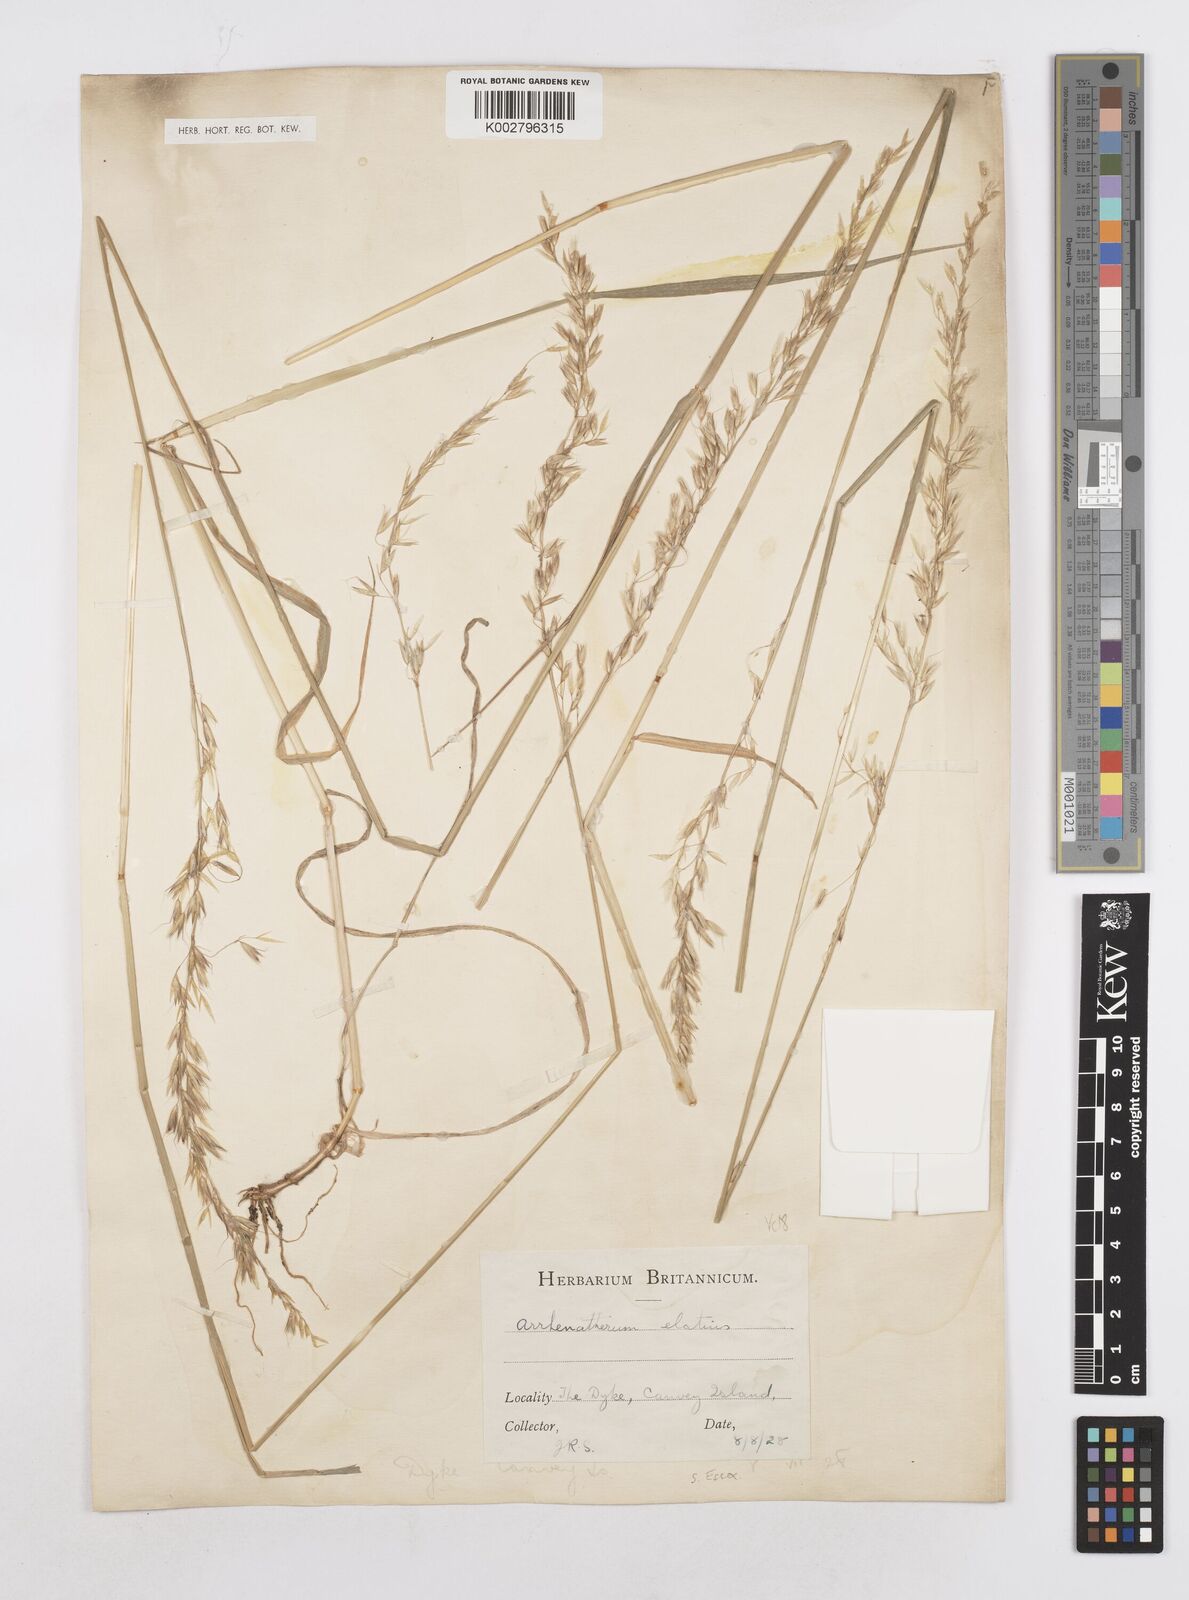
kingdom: Plantae
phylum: Tracheophyta
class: Liliopsida
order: Poales
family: Poaceae
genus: Arrhenatherum
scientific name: Arrhenatherum elatius
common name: Tall oatgrass
